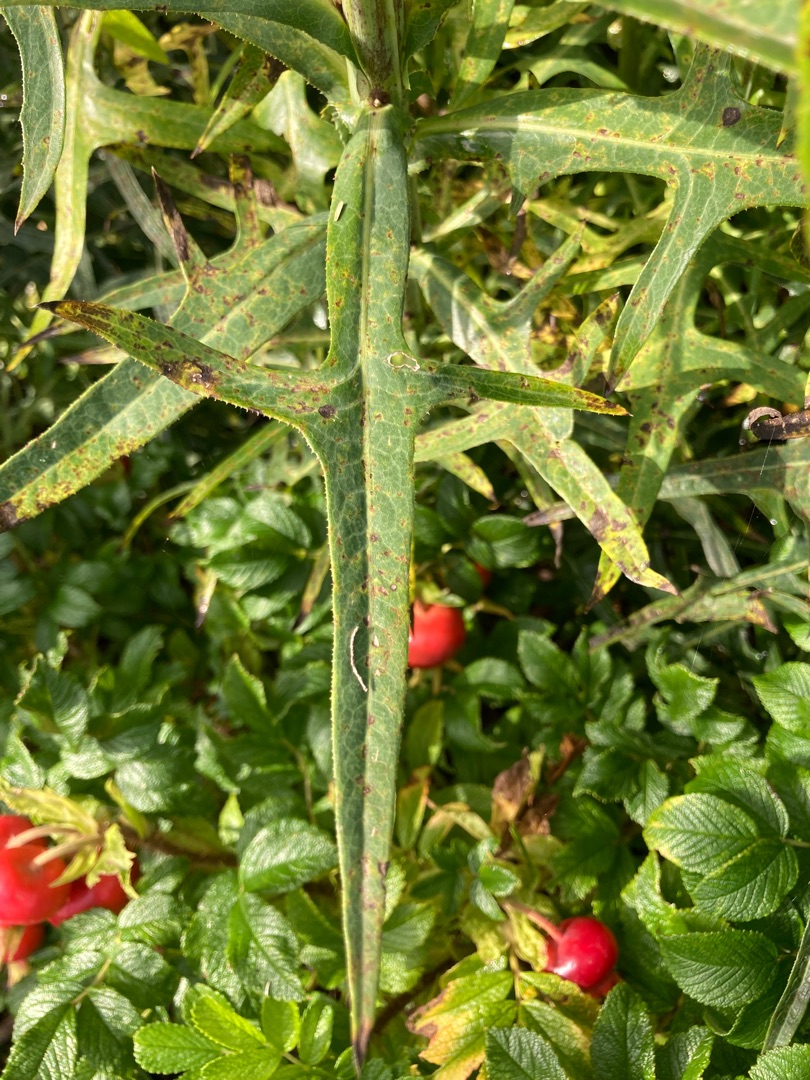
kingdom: Plantae
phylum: Tracheophyta
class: Magnoliopsida
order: Asterales
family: Asteraceae
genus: Sonchus
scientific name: Sonchus palustris
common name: Kær-svinemælk
